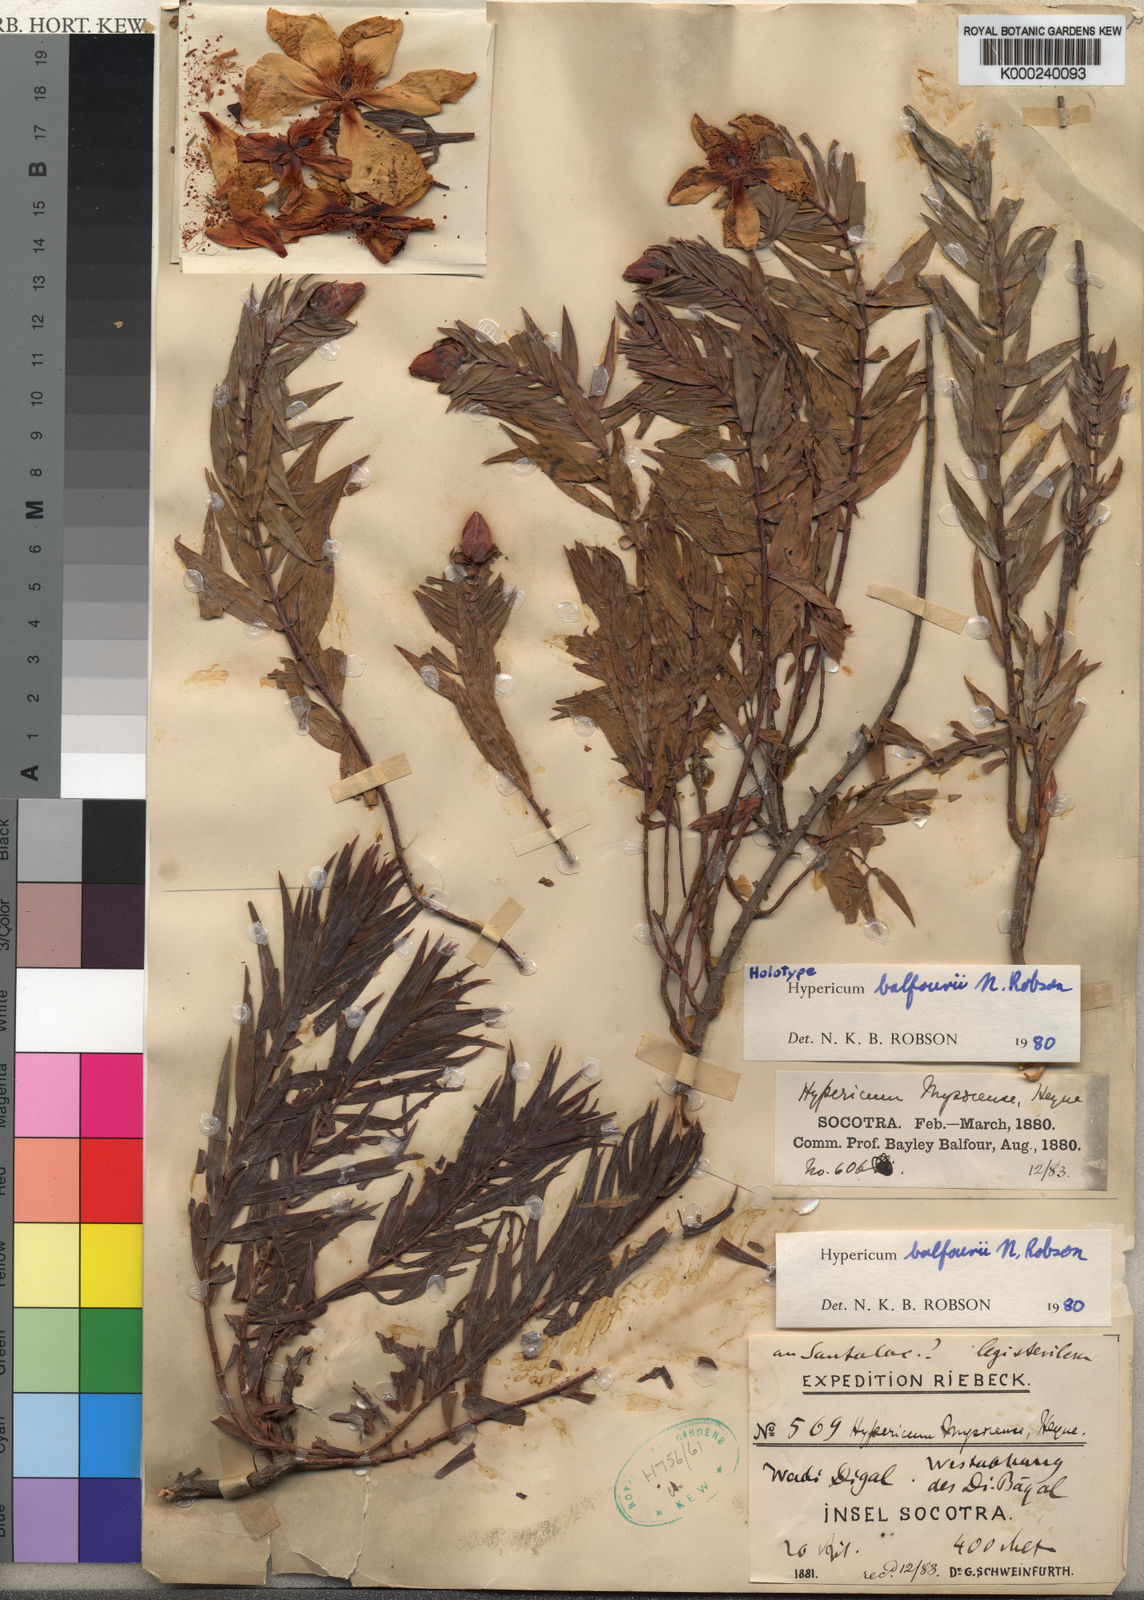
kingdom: Plantae
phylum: Tracheophyta
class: Magnoliopsida
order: Malpighiales
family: Hypericaceae
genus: Hypericum
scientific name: Hypericum balfourii
